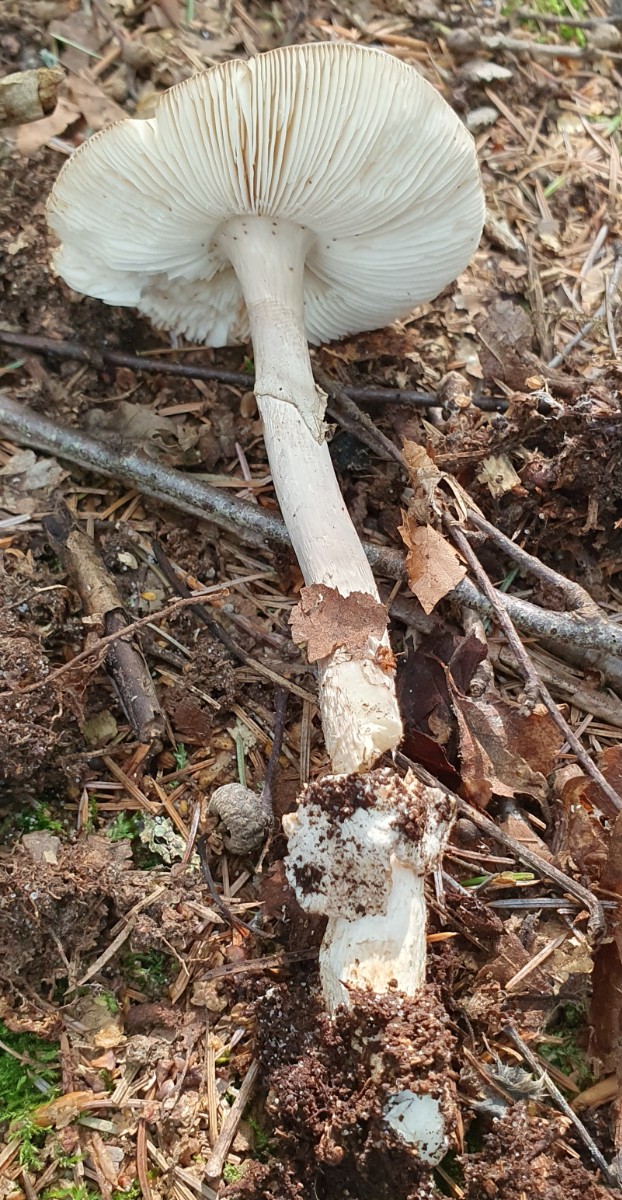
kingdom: Fungi
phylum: Basidiomycota
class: Agaricomycetes
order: Agaricales
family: Amanitaceae
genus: Amanita
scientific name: Amanita porphyria
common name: porfyr-fluesvamp
